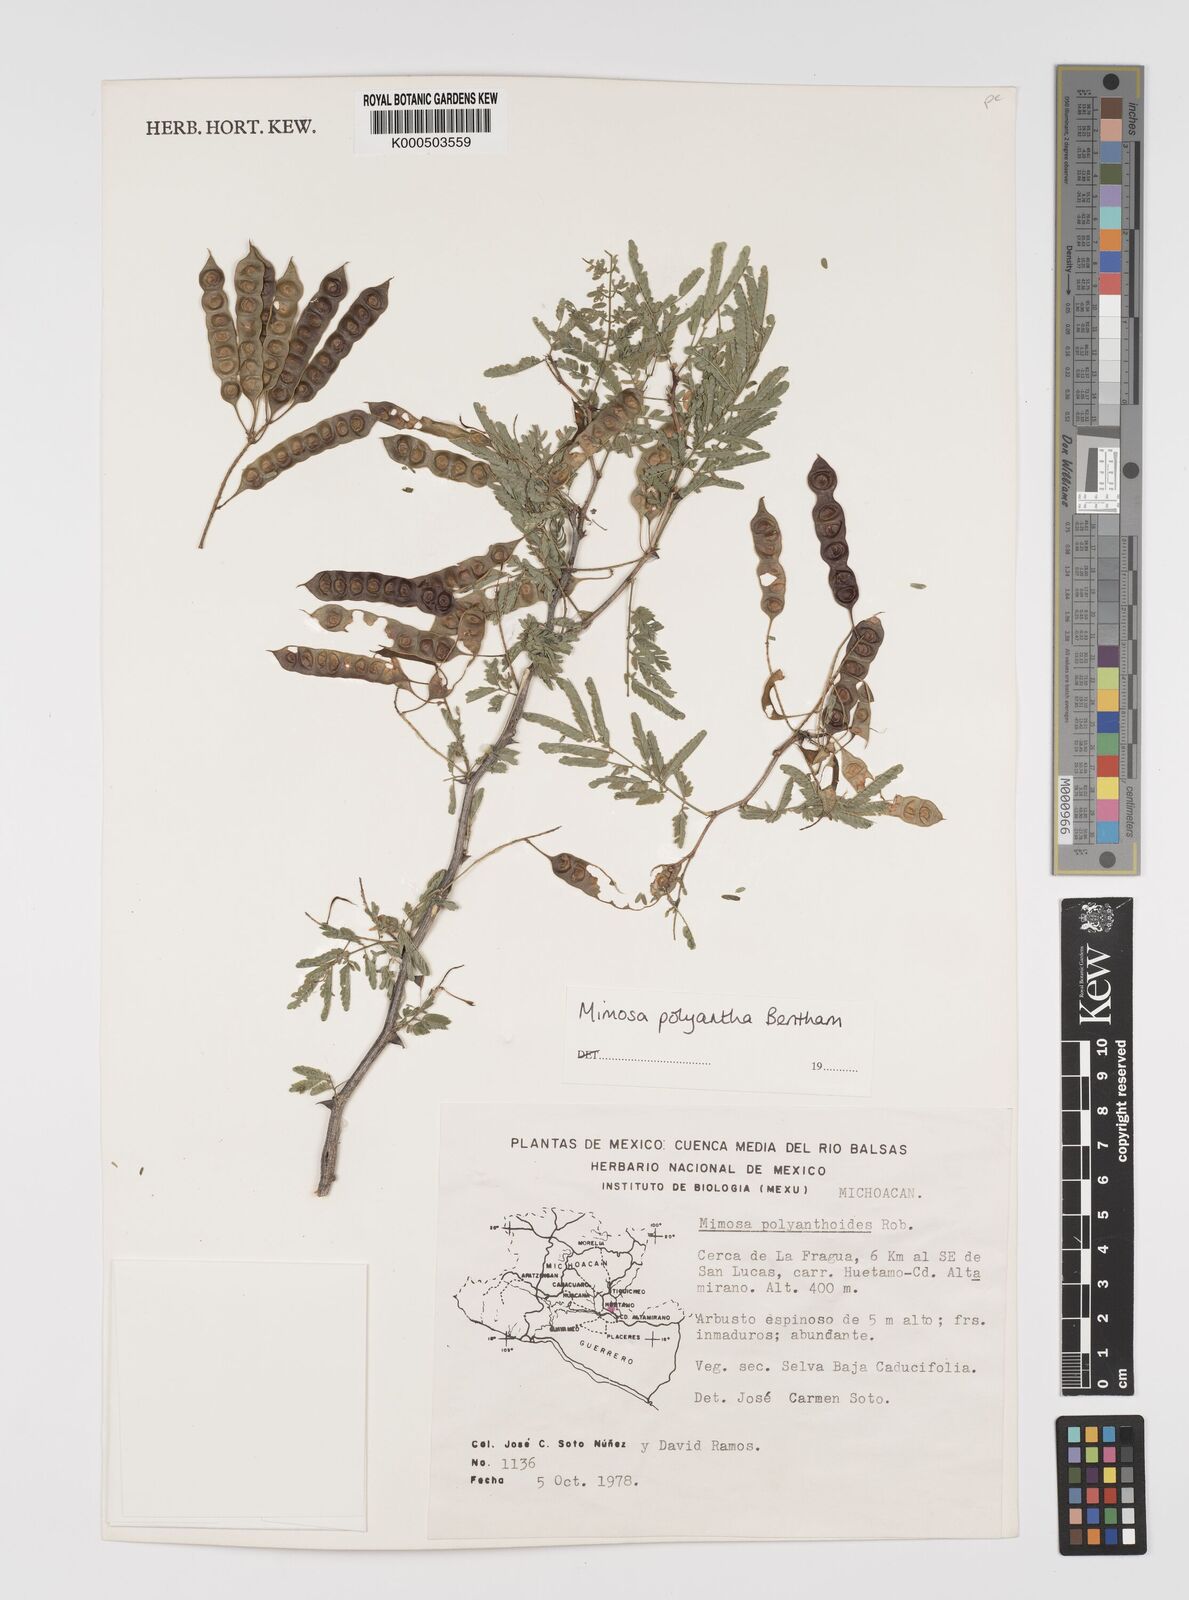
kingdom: Plantae
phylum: Tracheophyta
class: Magnoliopsida
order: Fabales
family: Fabaceae
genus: Mimosa
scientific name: Mimosa polyantha
